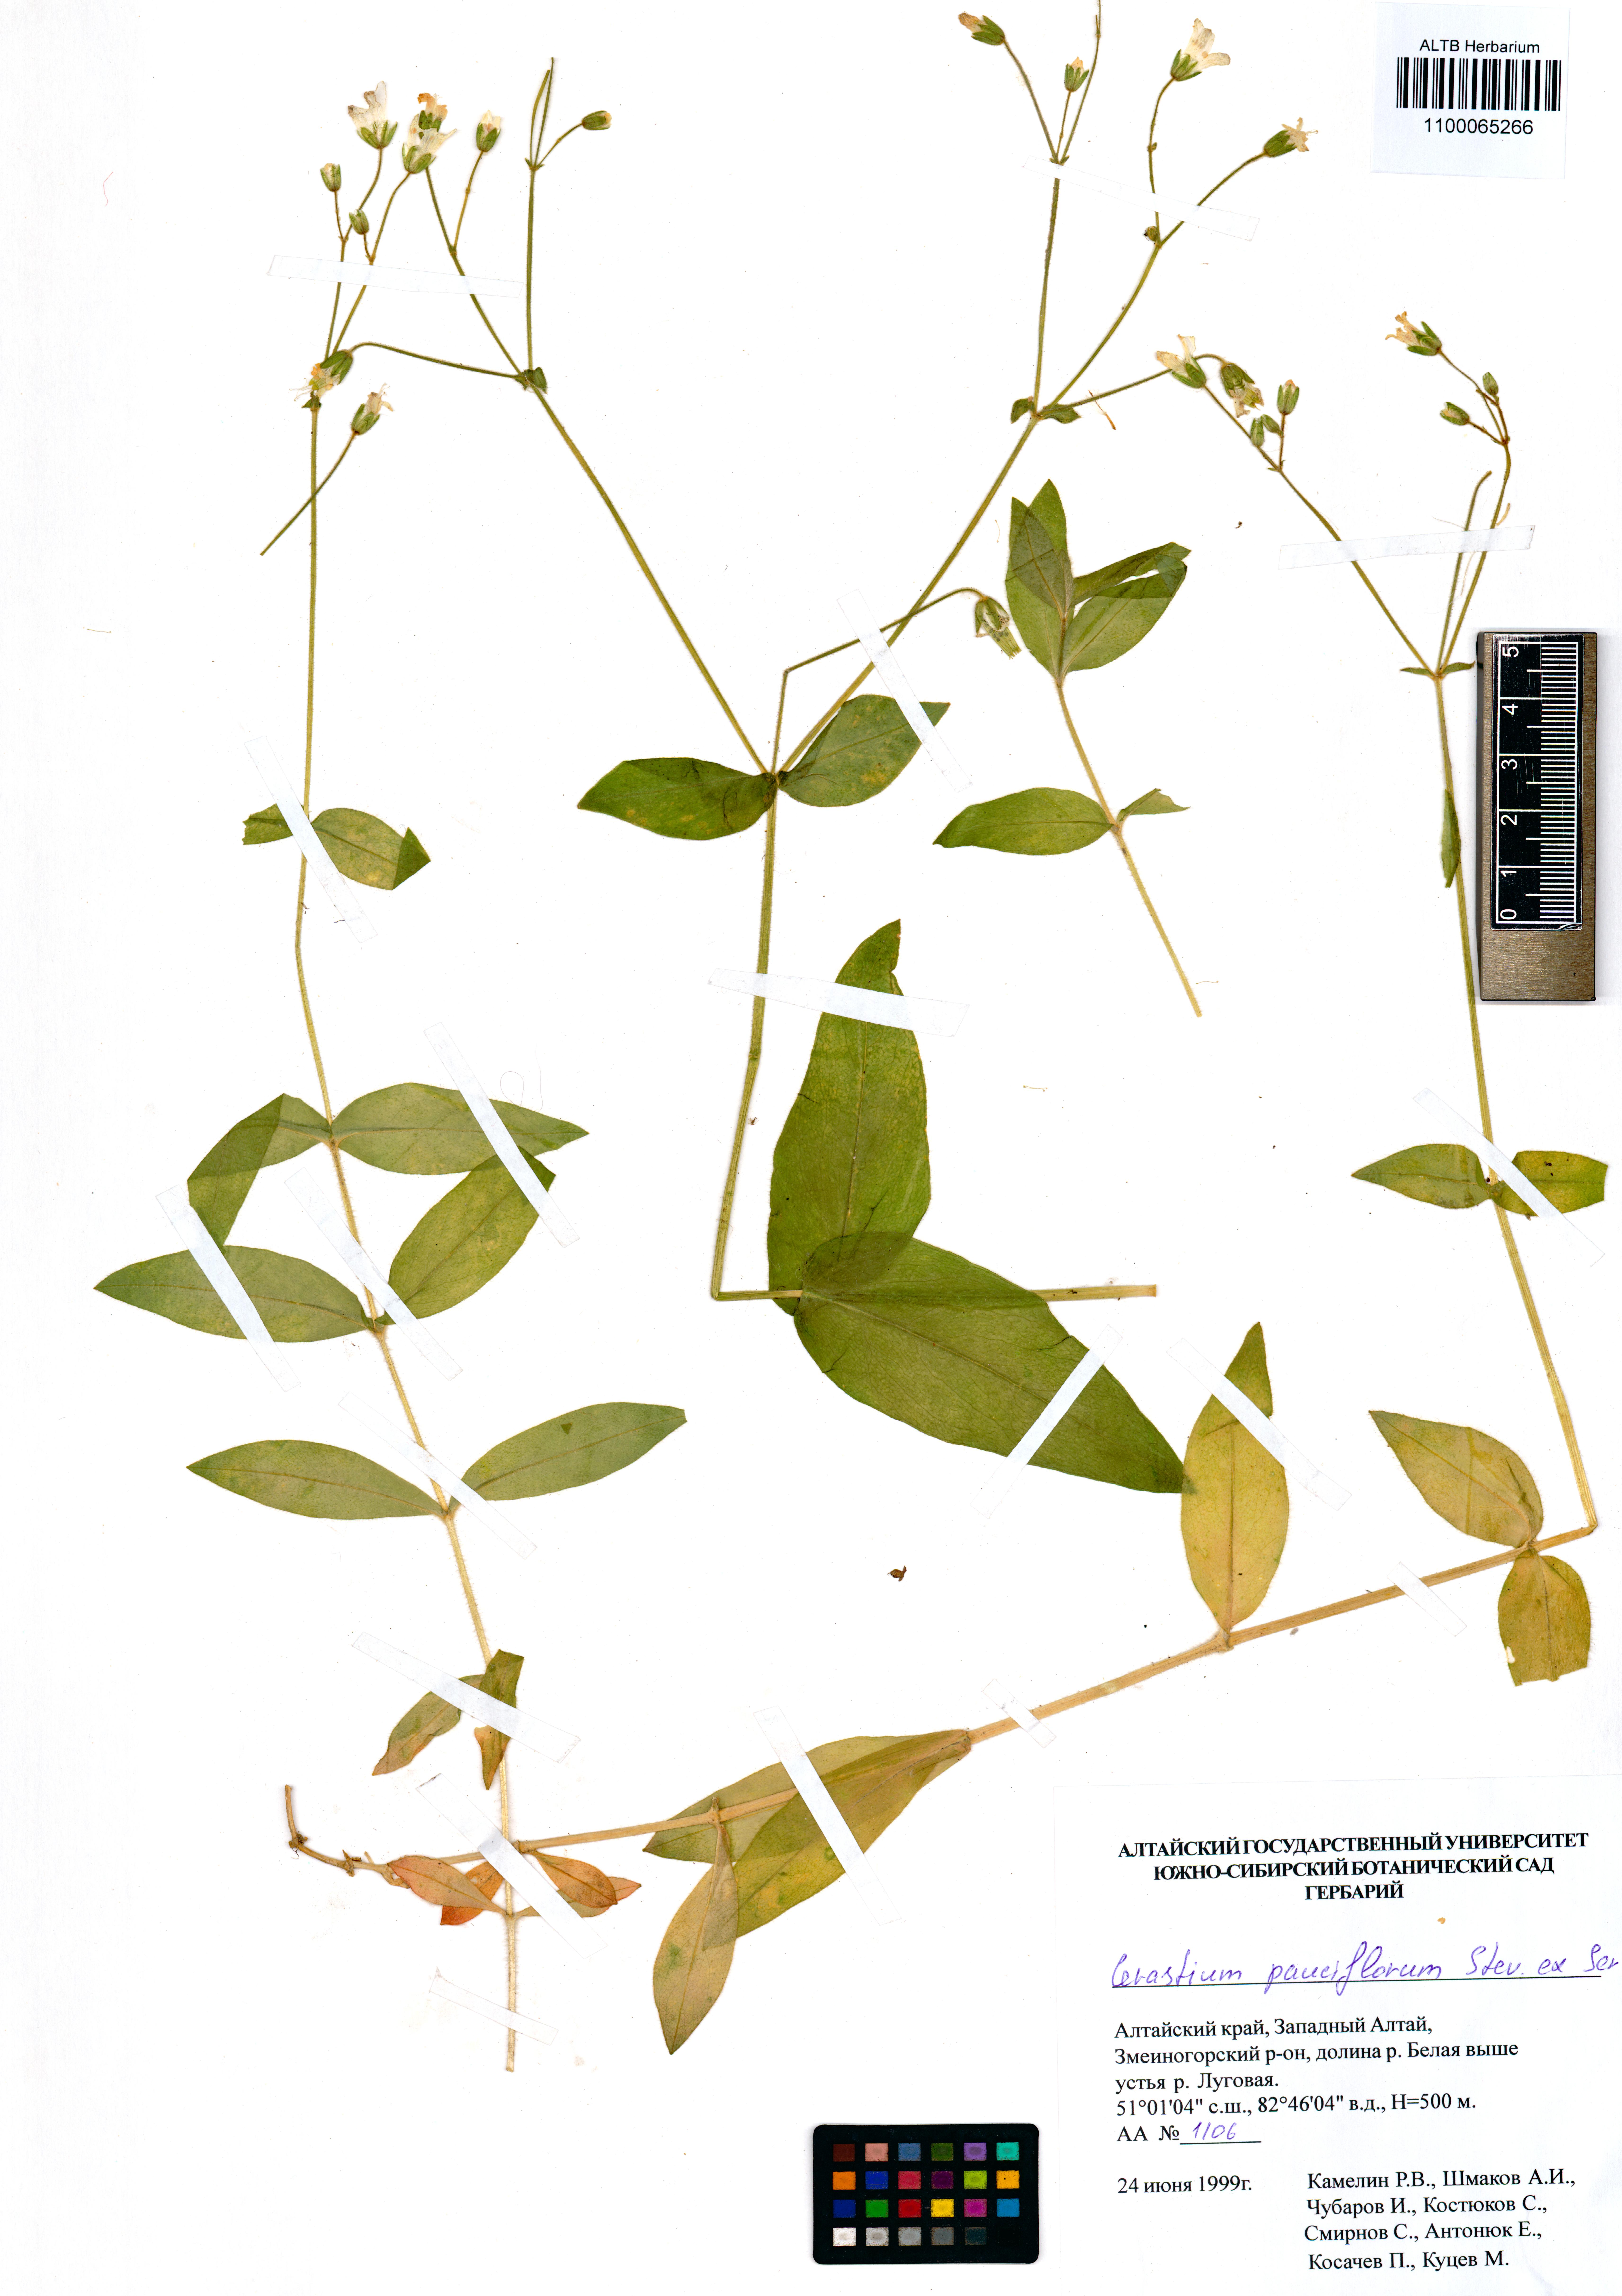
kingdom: Plantae
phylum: Tracheophyta
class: Magnoliopsida
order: Caryophyllales
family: Caryophyllaceae
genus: Cerastium
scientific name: Cerastium pauciflorum
